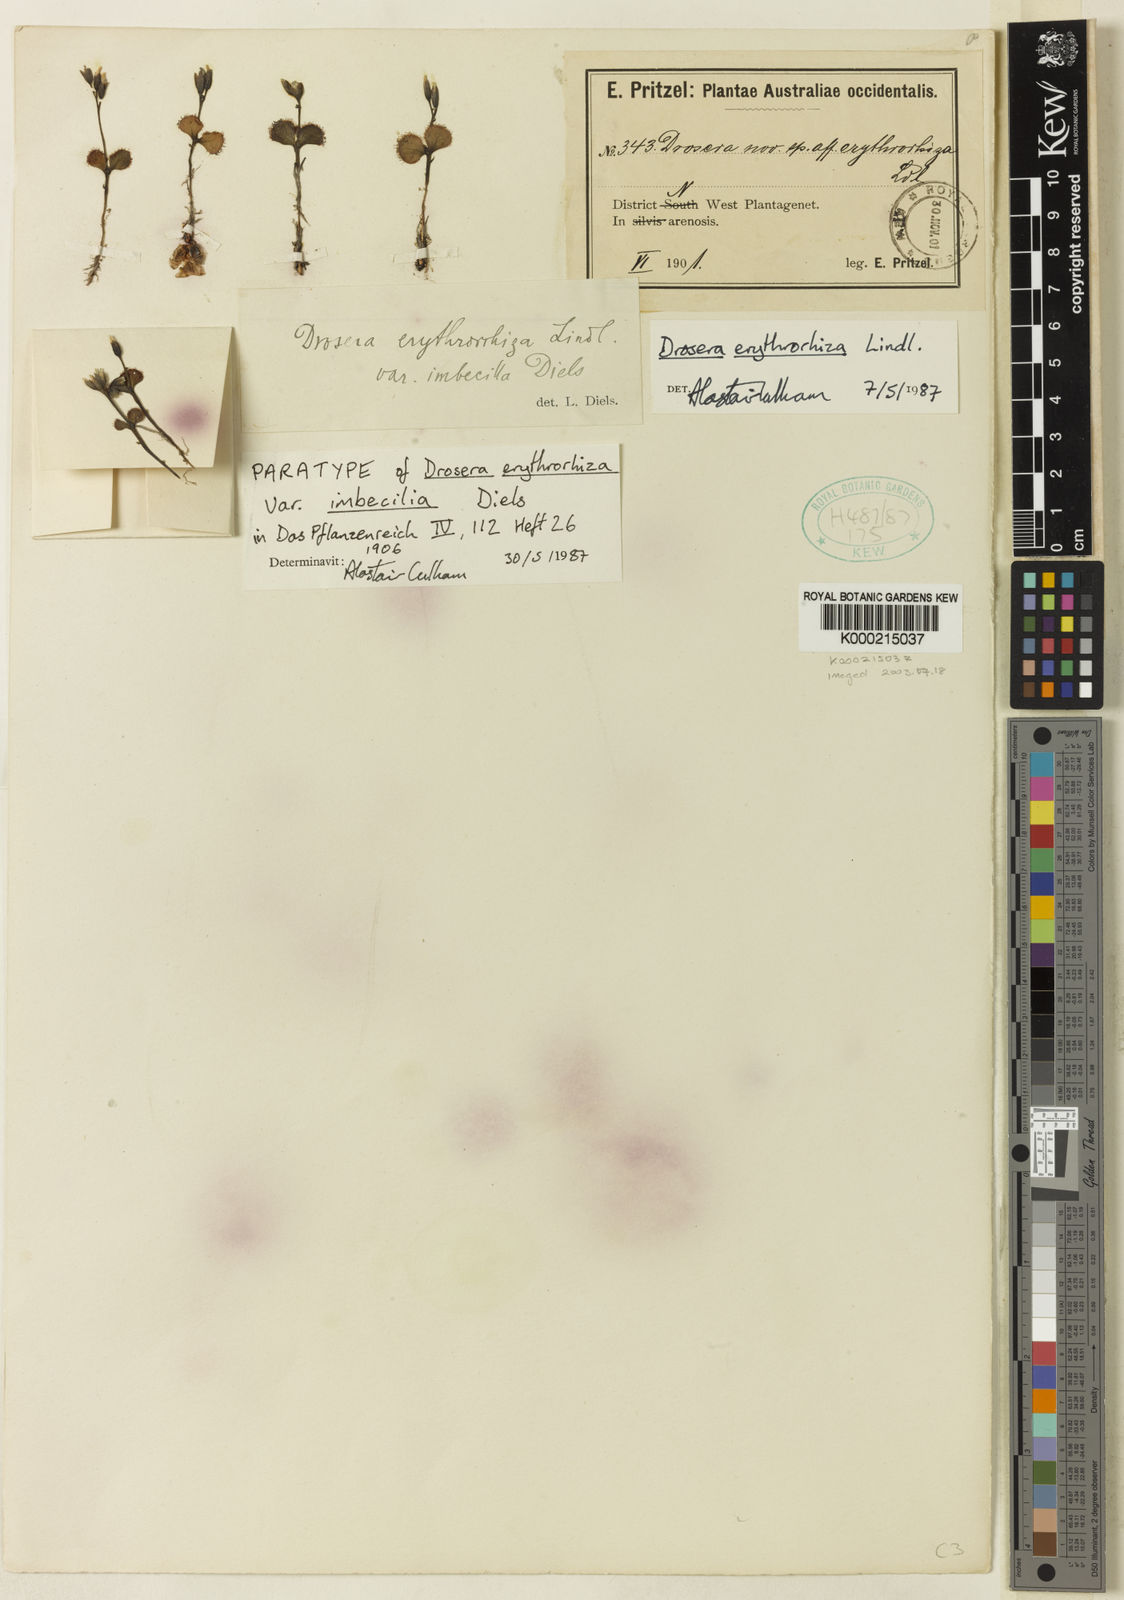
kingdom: Plantae
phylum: Tracheophyta
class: Magnoliopsida
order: Caryophyllales
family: Droseraceae
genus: Drosera
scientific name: Drosera erythrorhiza
